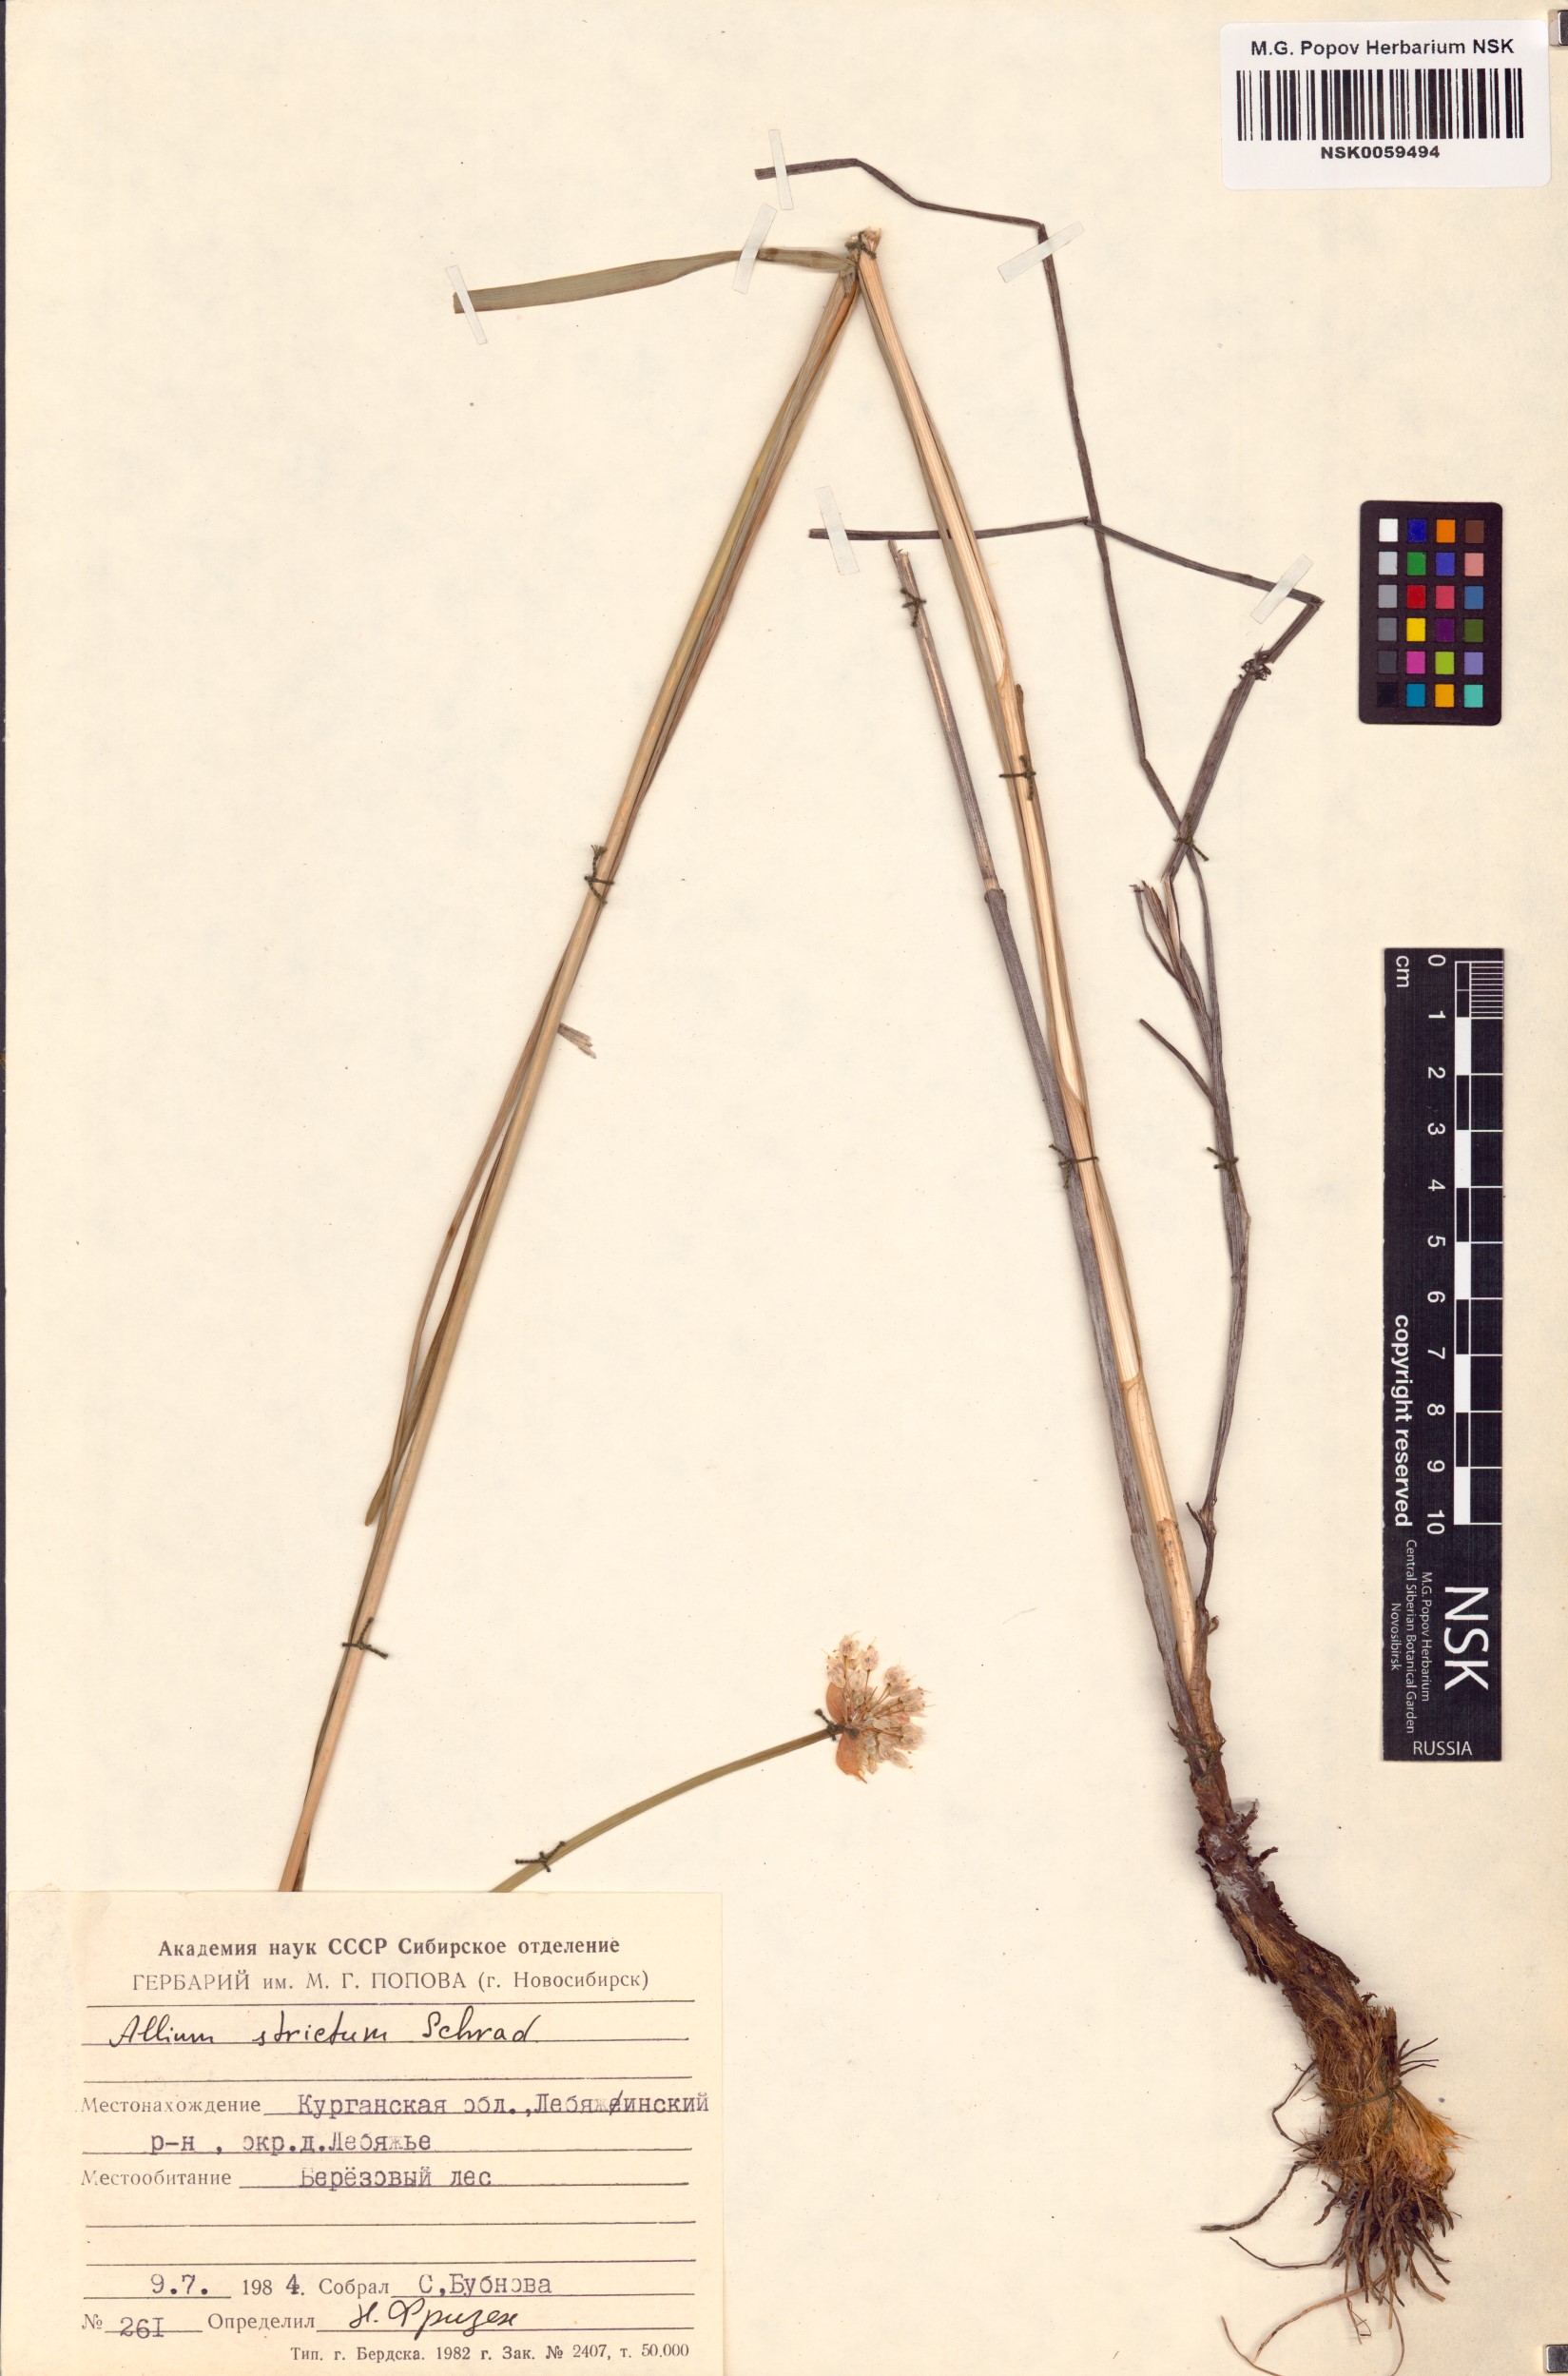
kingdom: Plantae
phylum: Tracheophyta
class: Liliopsida
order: Asparagales
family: Amaryllidaceae
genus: Allium
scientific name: Allium strictum
